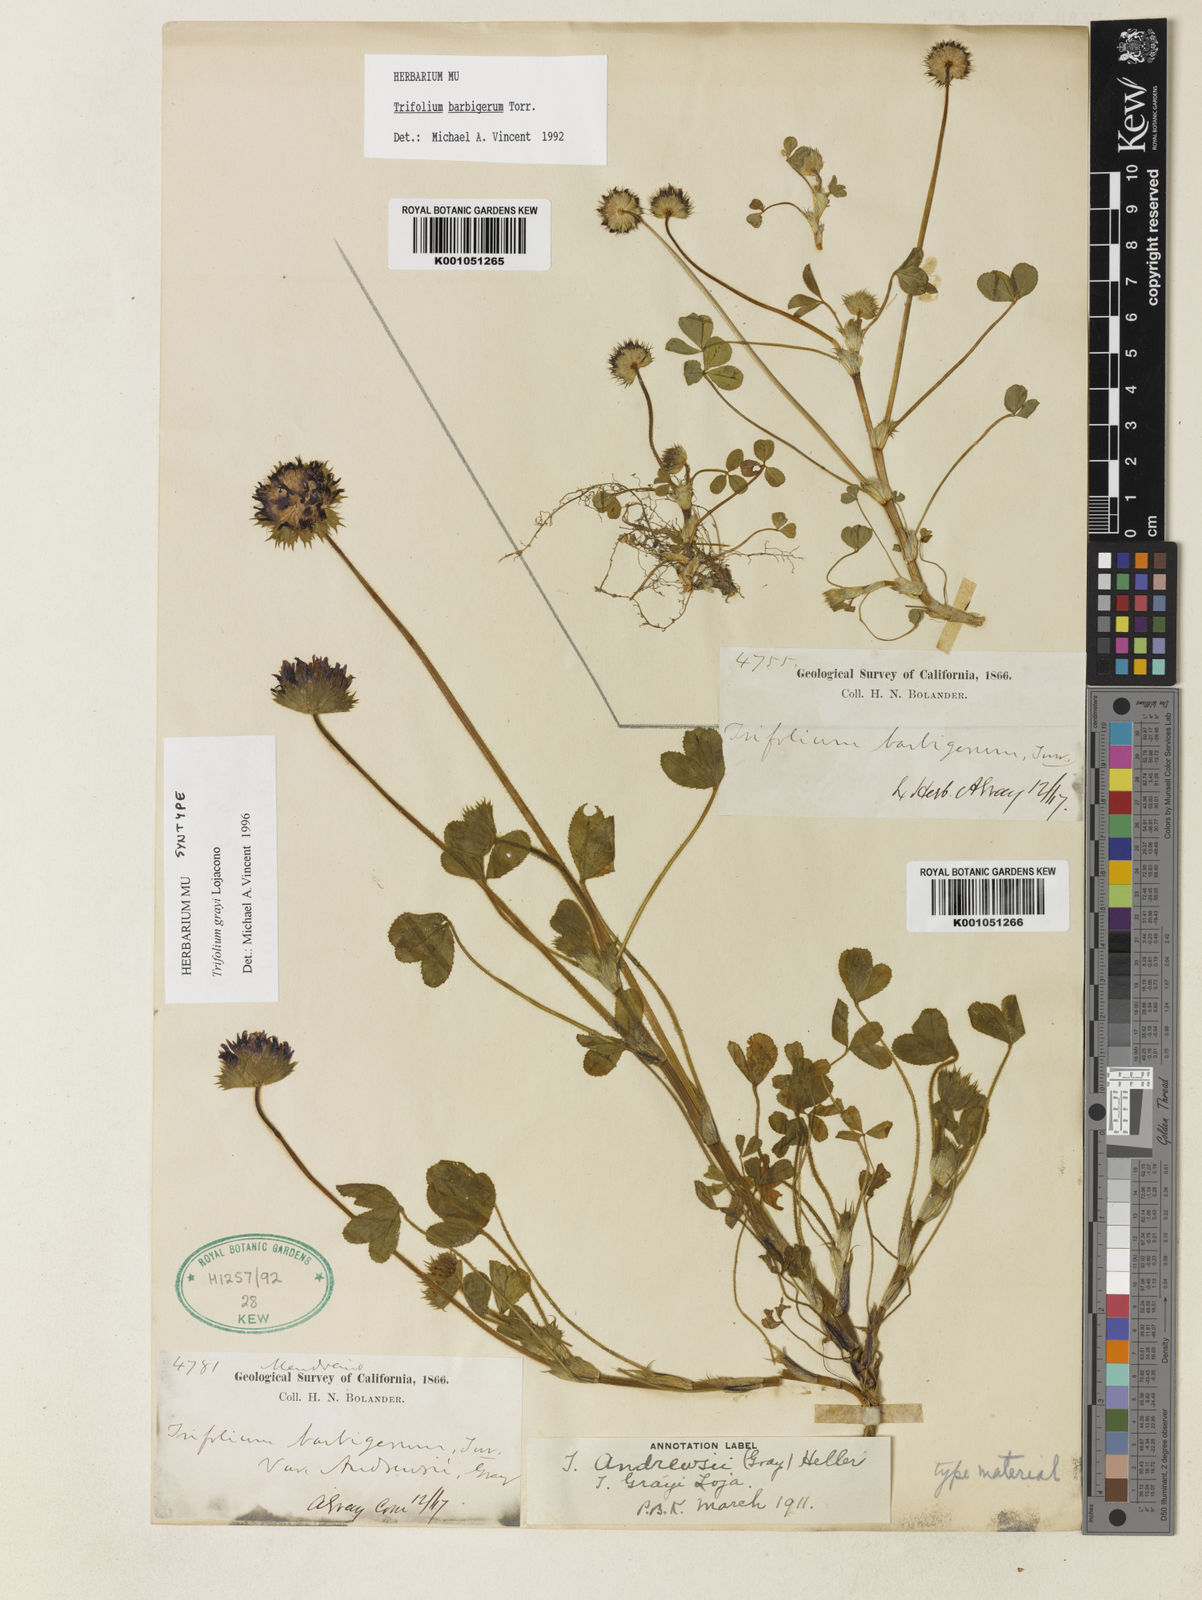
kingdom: Plantae
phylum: Tracheophyta
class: Magnoliopsida
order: Fabales
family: Fabaceae
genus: Trifolium
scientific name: Trifolium barbigerum
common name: Bearded clover
